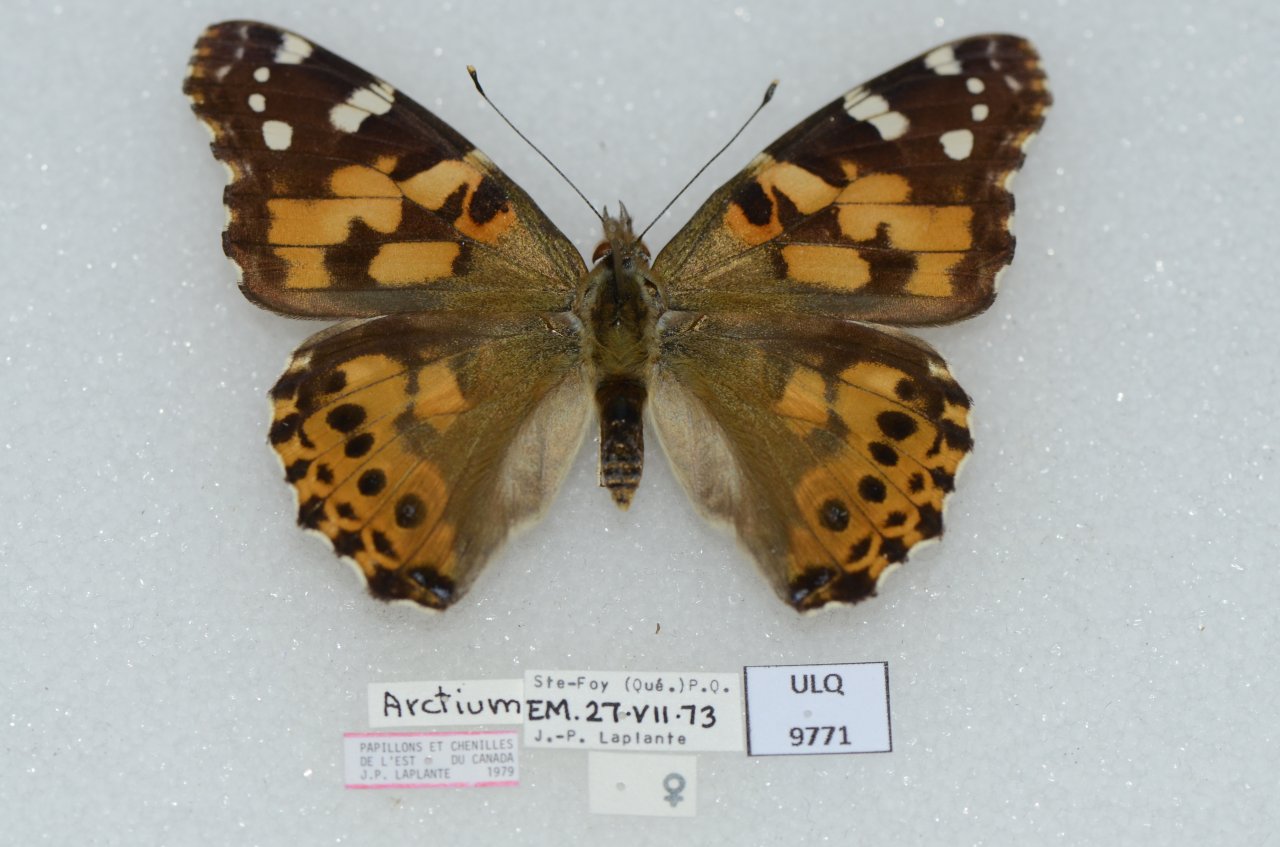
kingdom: Animalia
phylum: Arthropoda
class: Insecta
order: Lepidoptera
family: Nymphalidae
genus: Vanessa
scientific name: Vanessa cardui
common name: Painted Lady
